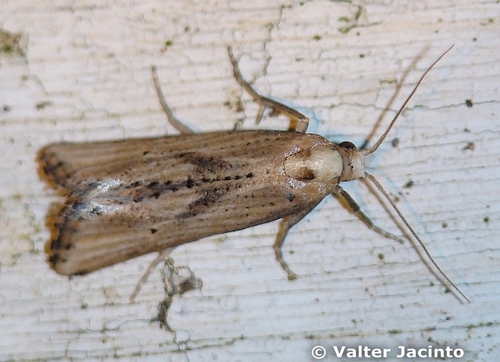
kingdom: Animalia
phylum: Arthropoda
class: Insecta
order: Lepidoptera
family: Tortricidae
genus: Cochylimorpha
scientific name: Cochylimorpha decolorella
